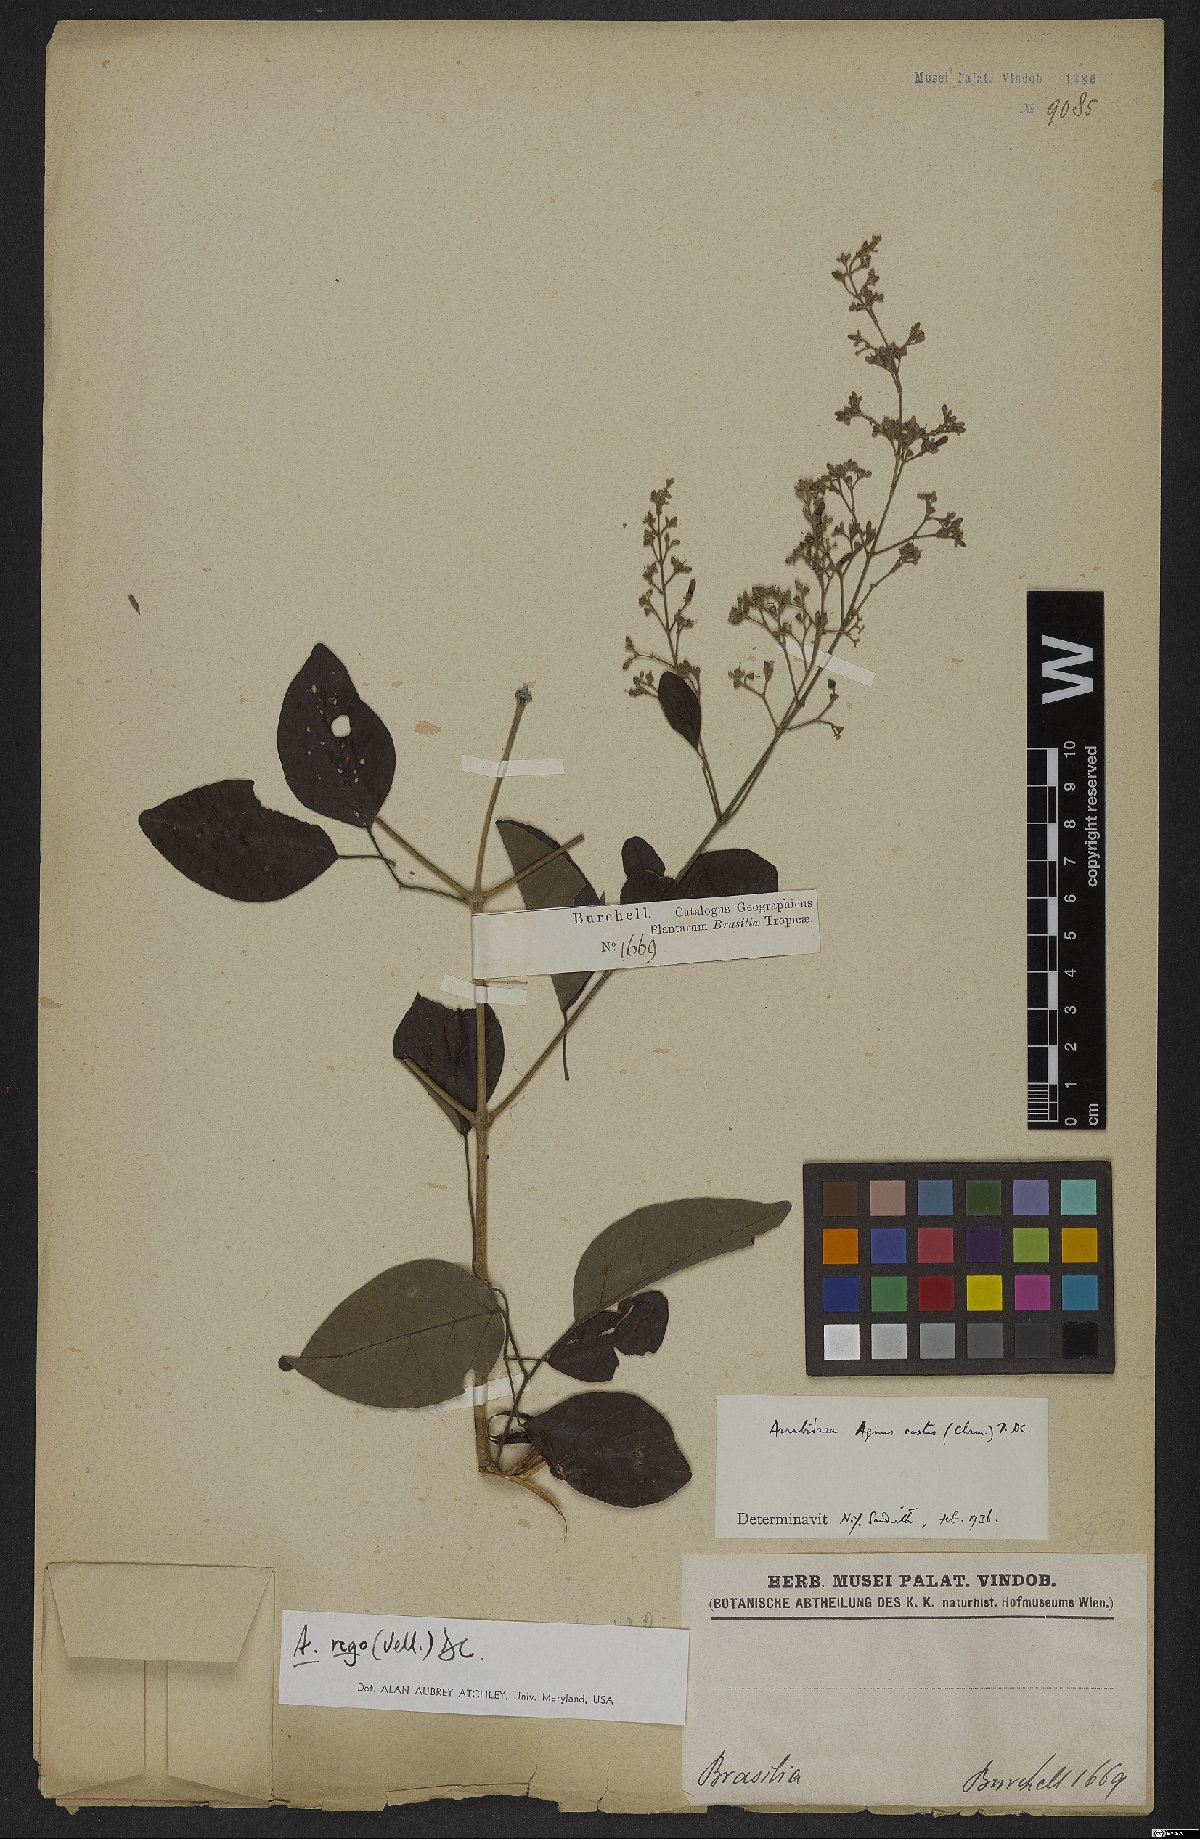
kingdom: Plantae
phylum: Tracheophyta
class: Magnoliopsida
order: Lamiales
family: Bignoniaceae
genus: Fridericia
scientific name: Fridericia rego
